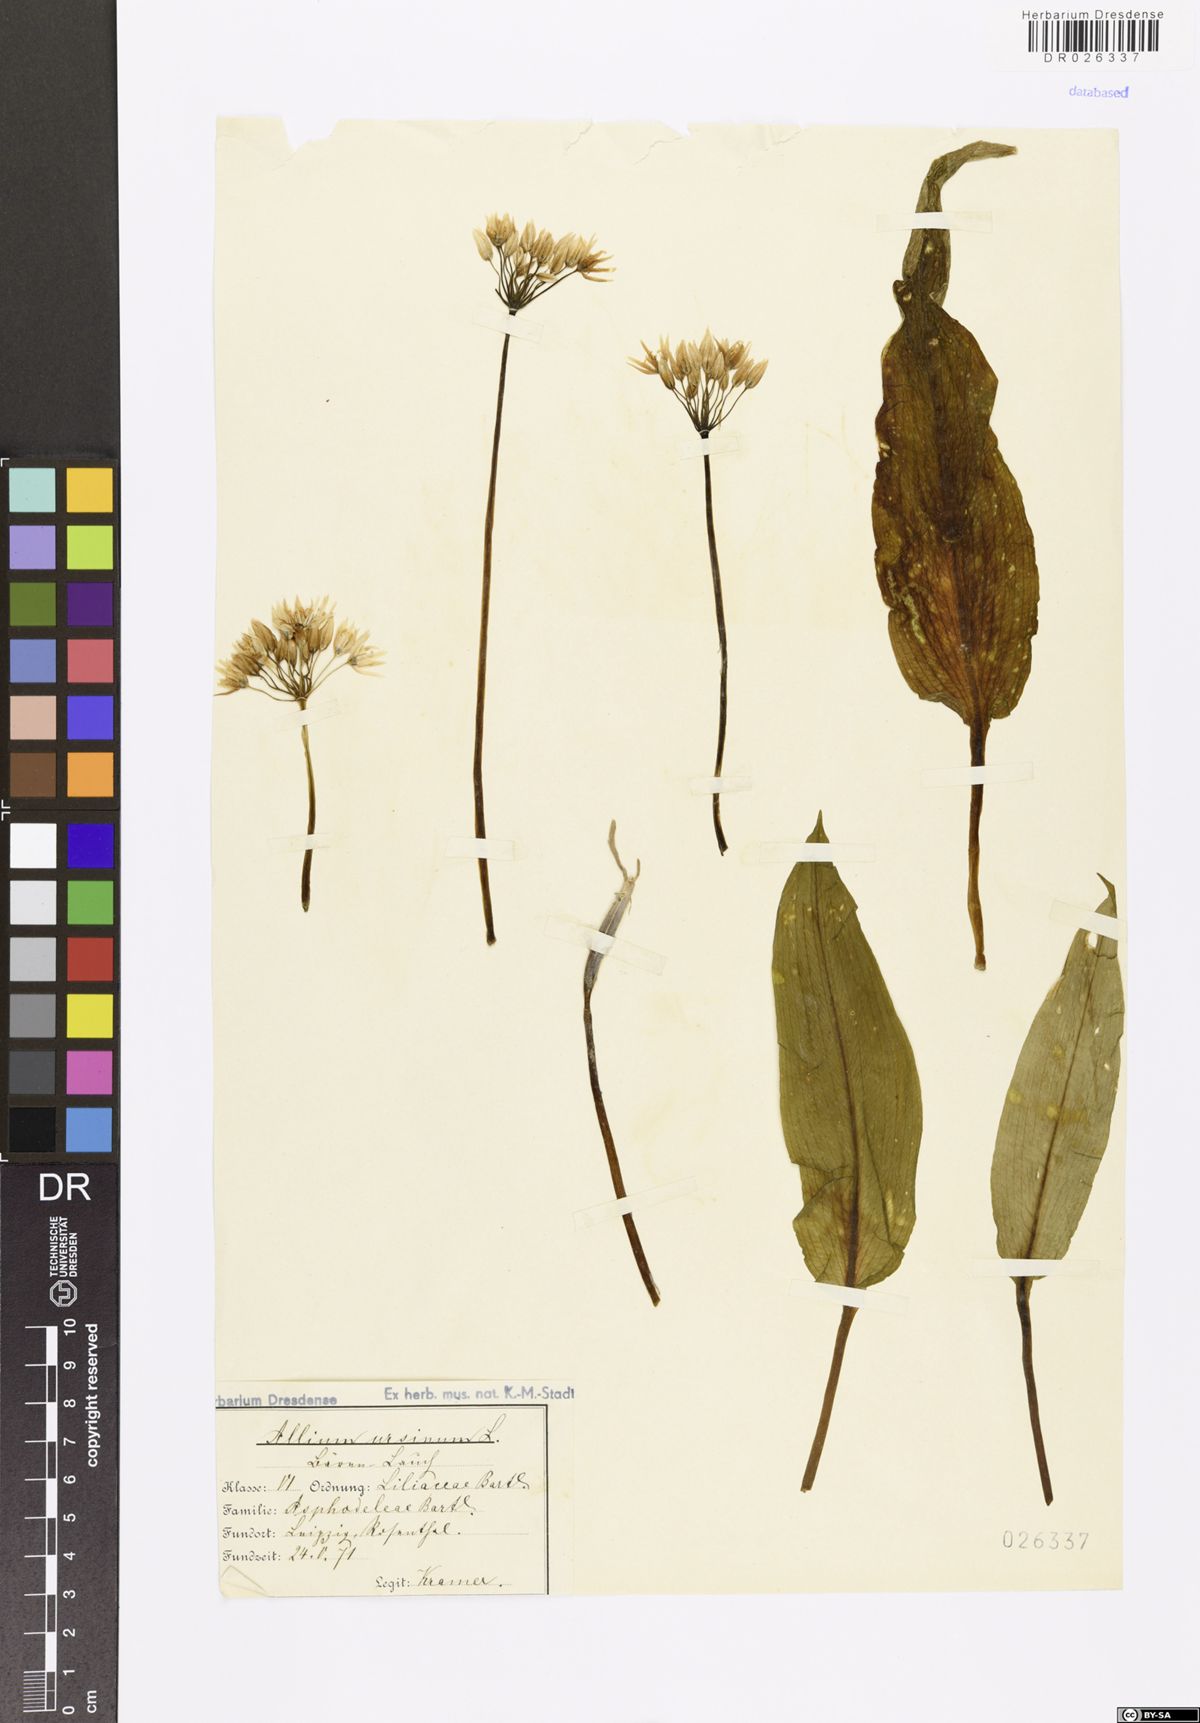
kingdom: Plantae
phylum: Tracheophyta
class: Liliopsida
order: Asparagales
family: Amaryllidaceae
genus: Allium
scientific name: Allium ursinum
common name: Ramsons
